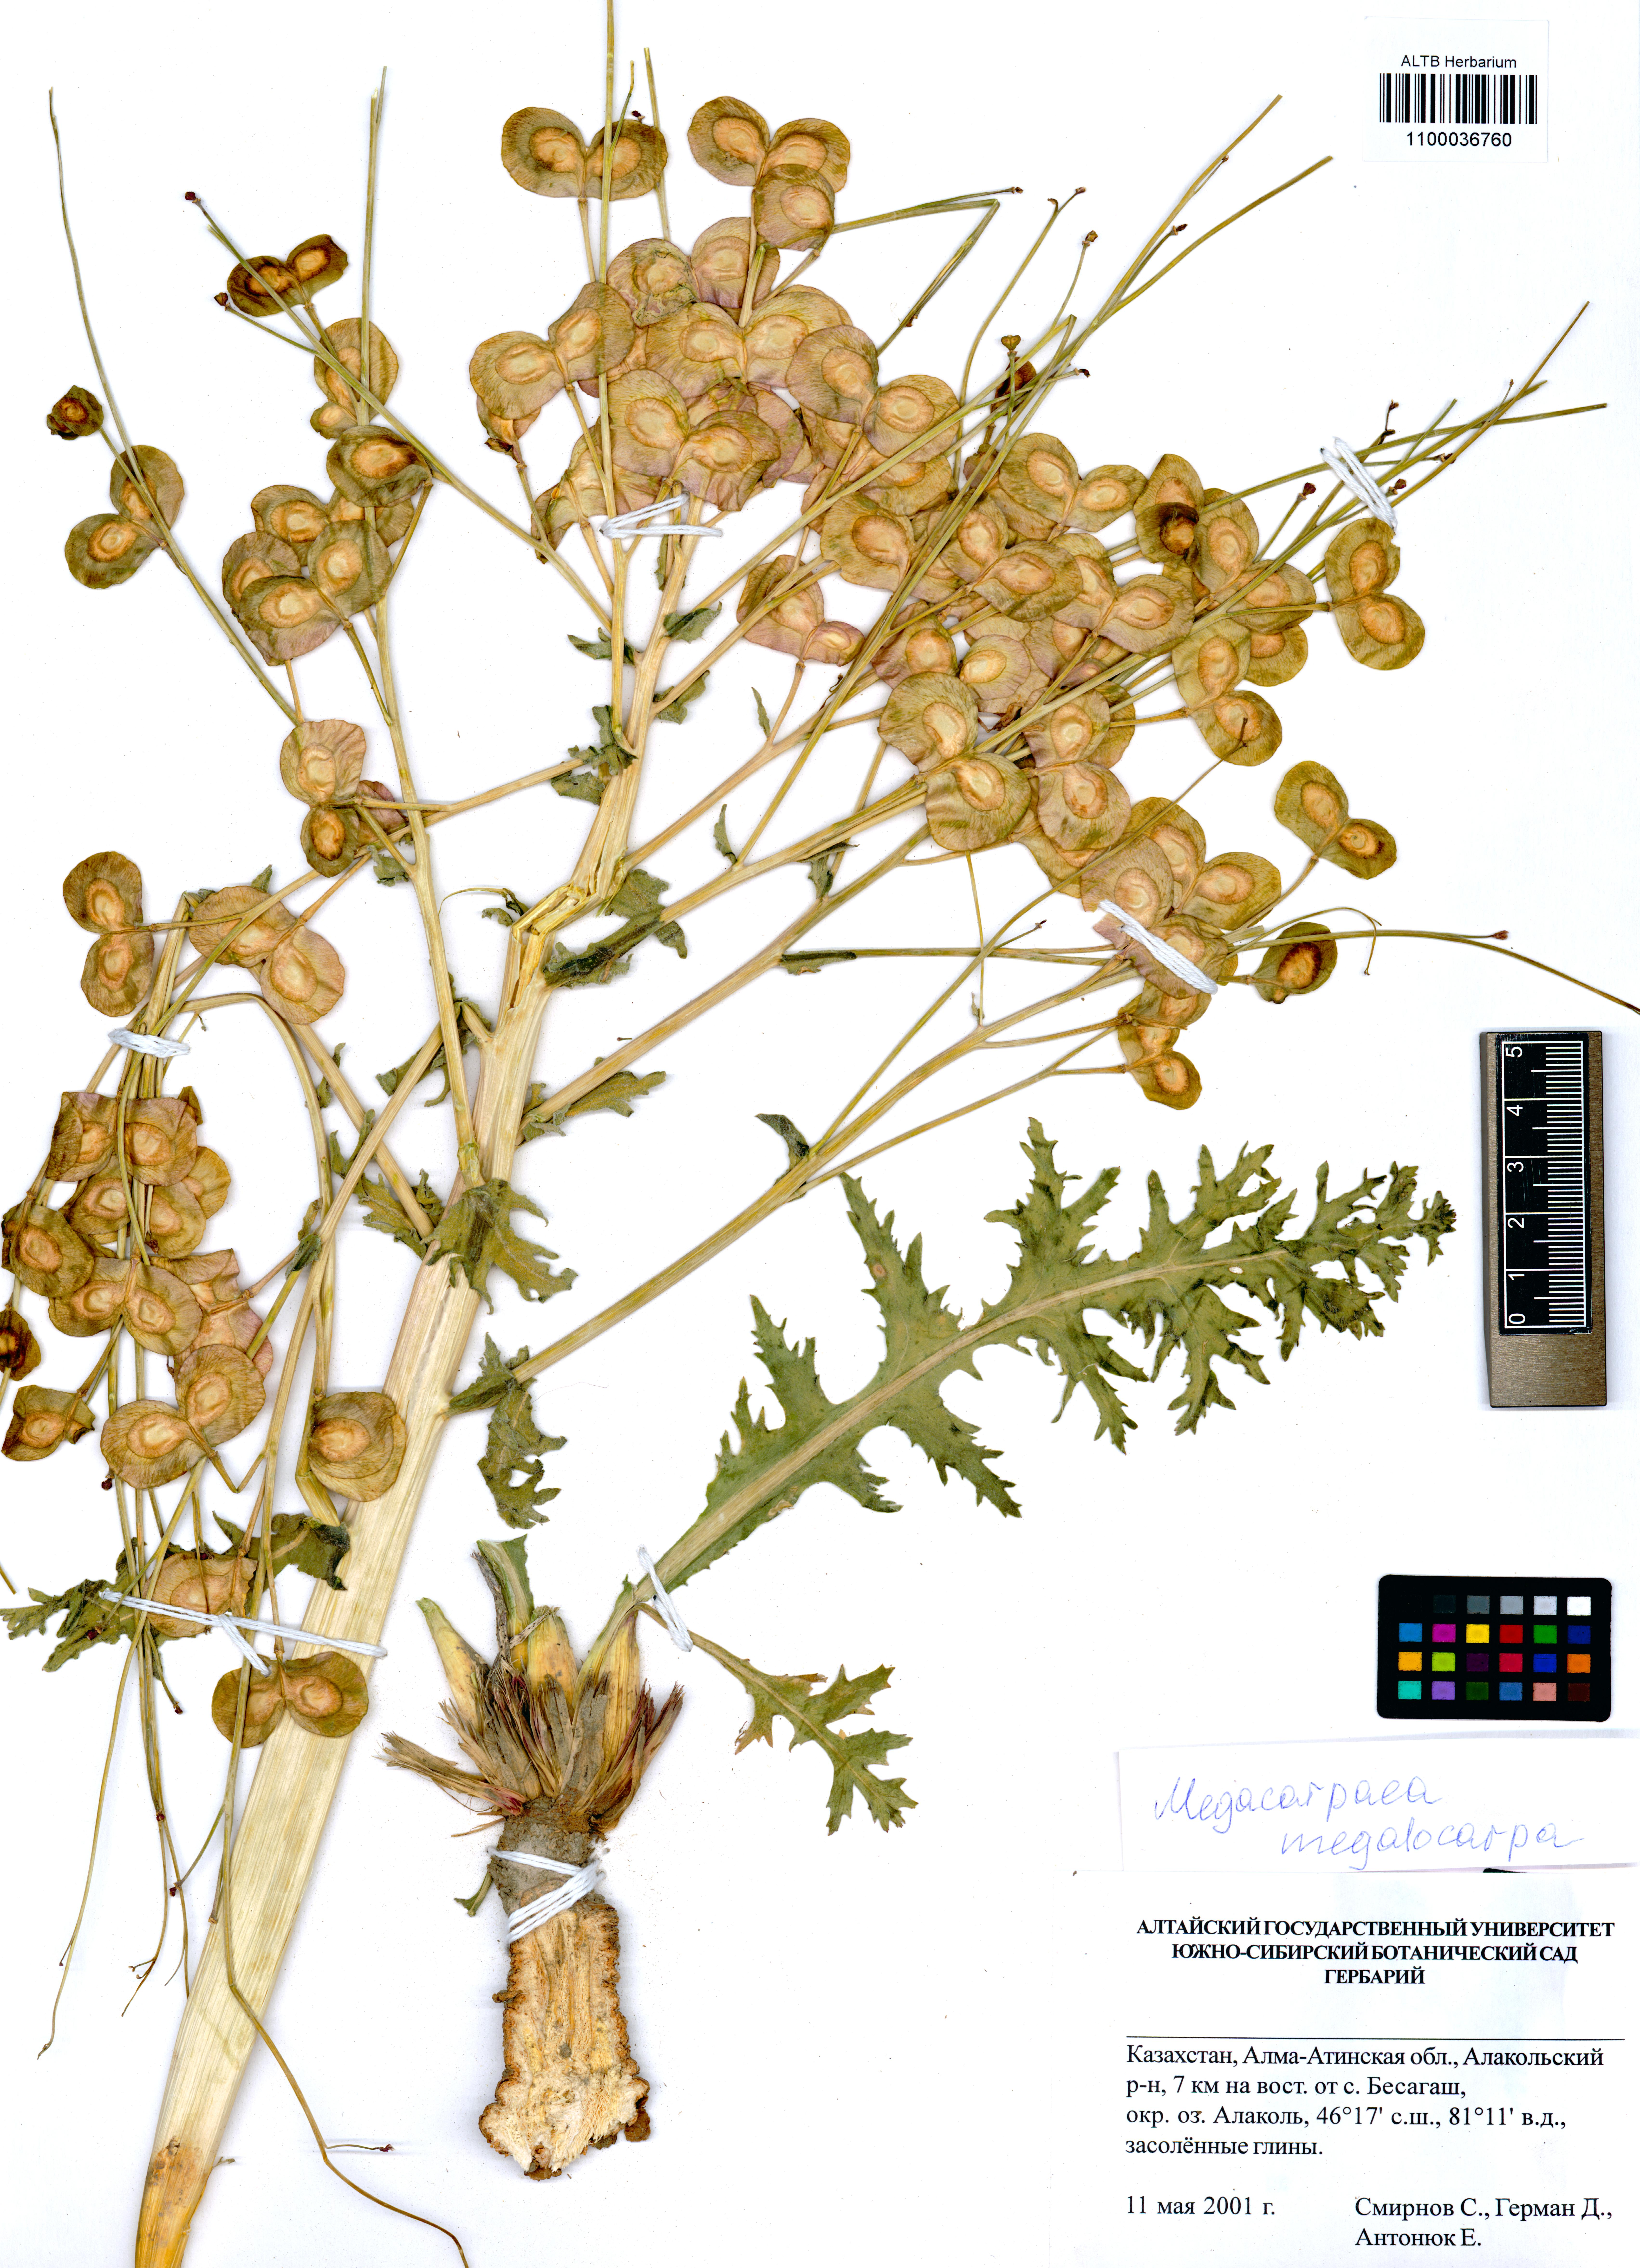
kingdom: Plantae
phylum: Tracheophyta
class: Magnoliopsida
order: Brassicales
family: Brassicaceae
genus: Megacarpaea
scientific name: Megacarpaea megalocarpa
